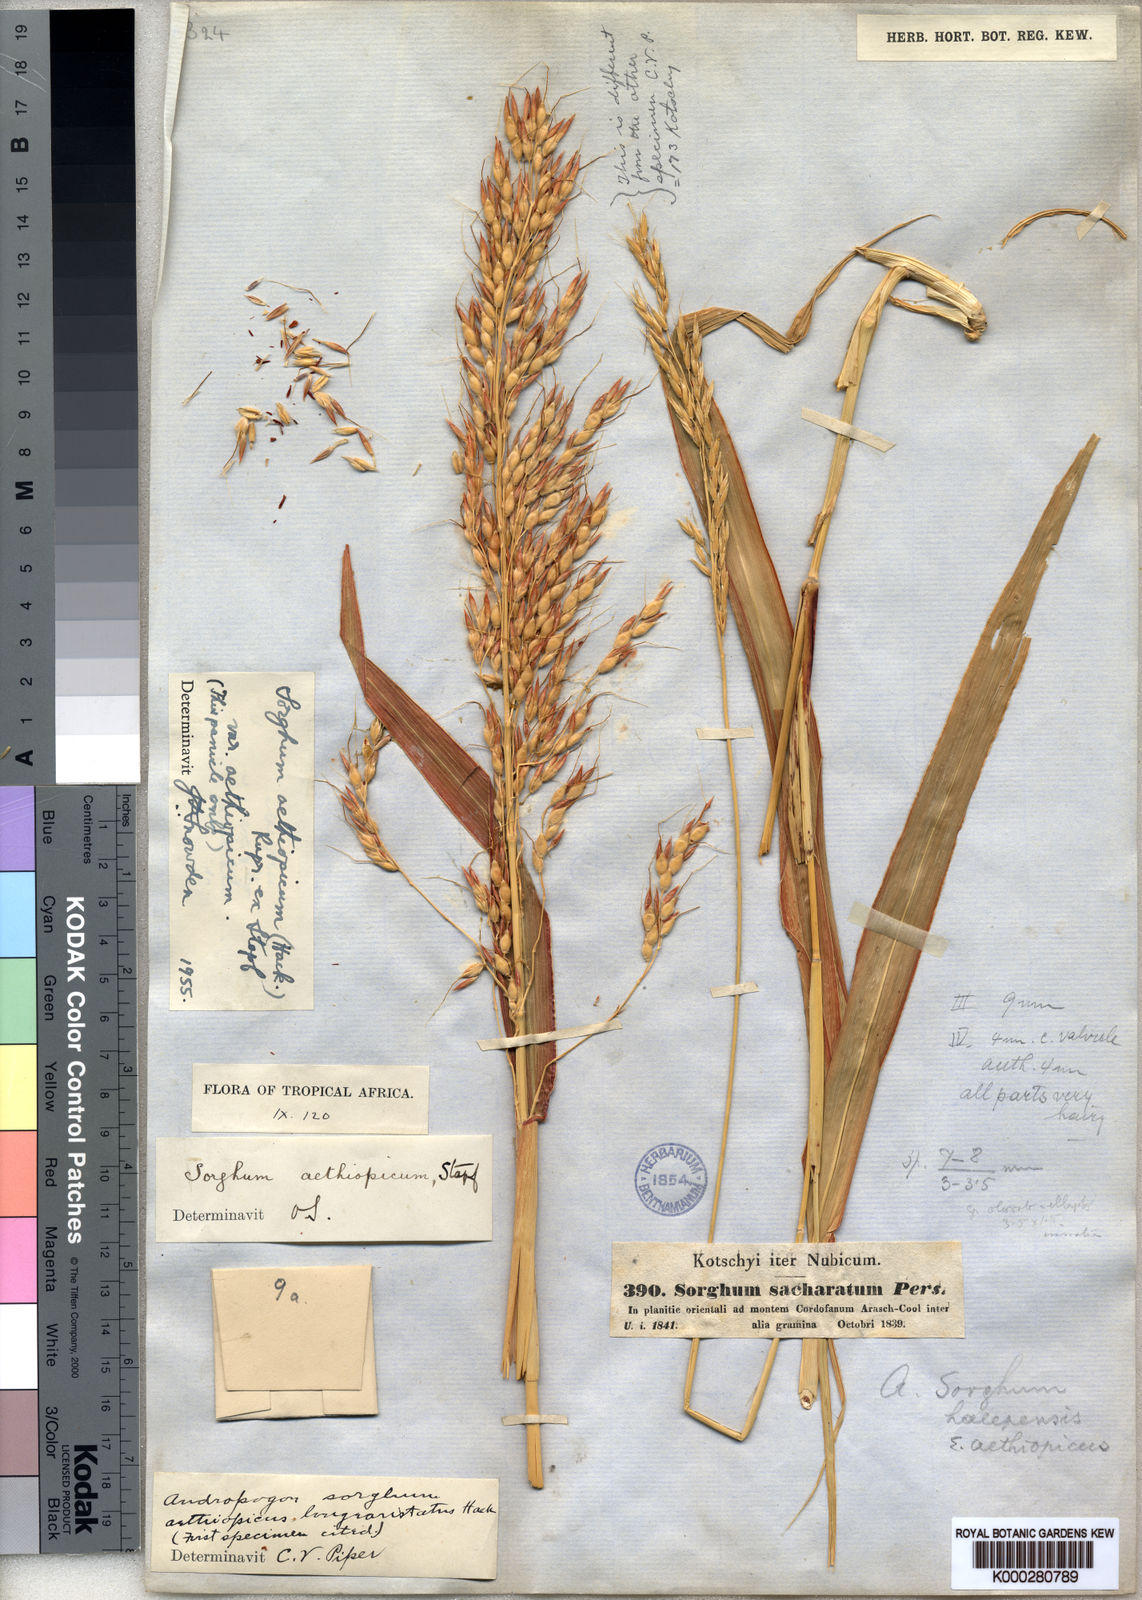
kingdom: Plantae
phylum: Tracheophyta
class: Liliopsida
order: Poales
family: Poaceae
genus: Sorghum
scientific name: Sorghum arundinaceum
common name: Sorghum
